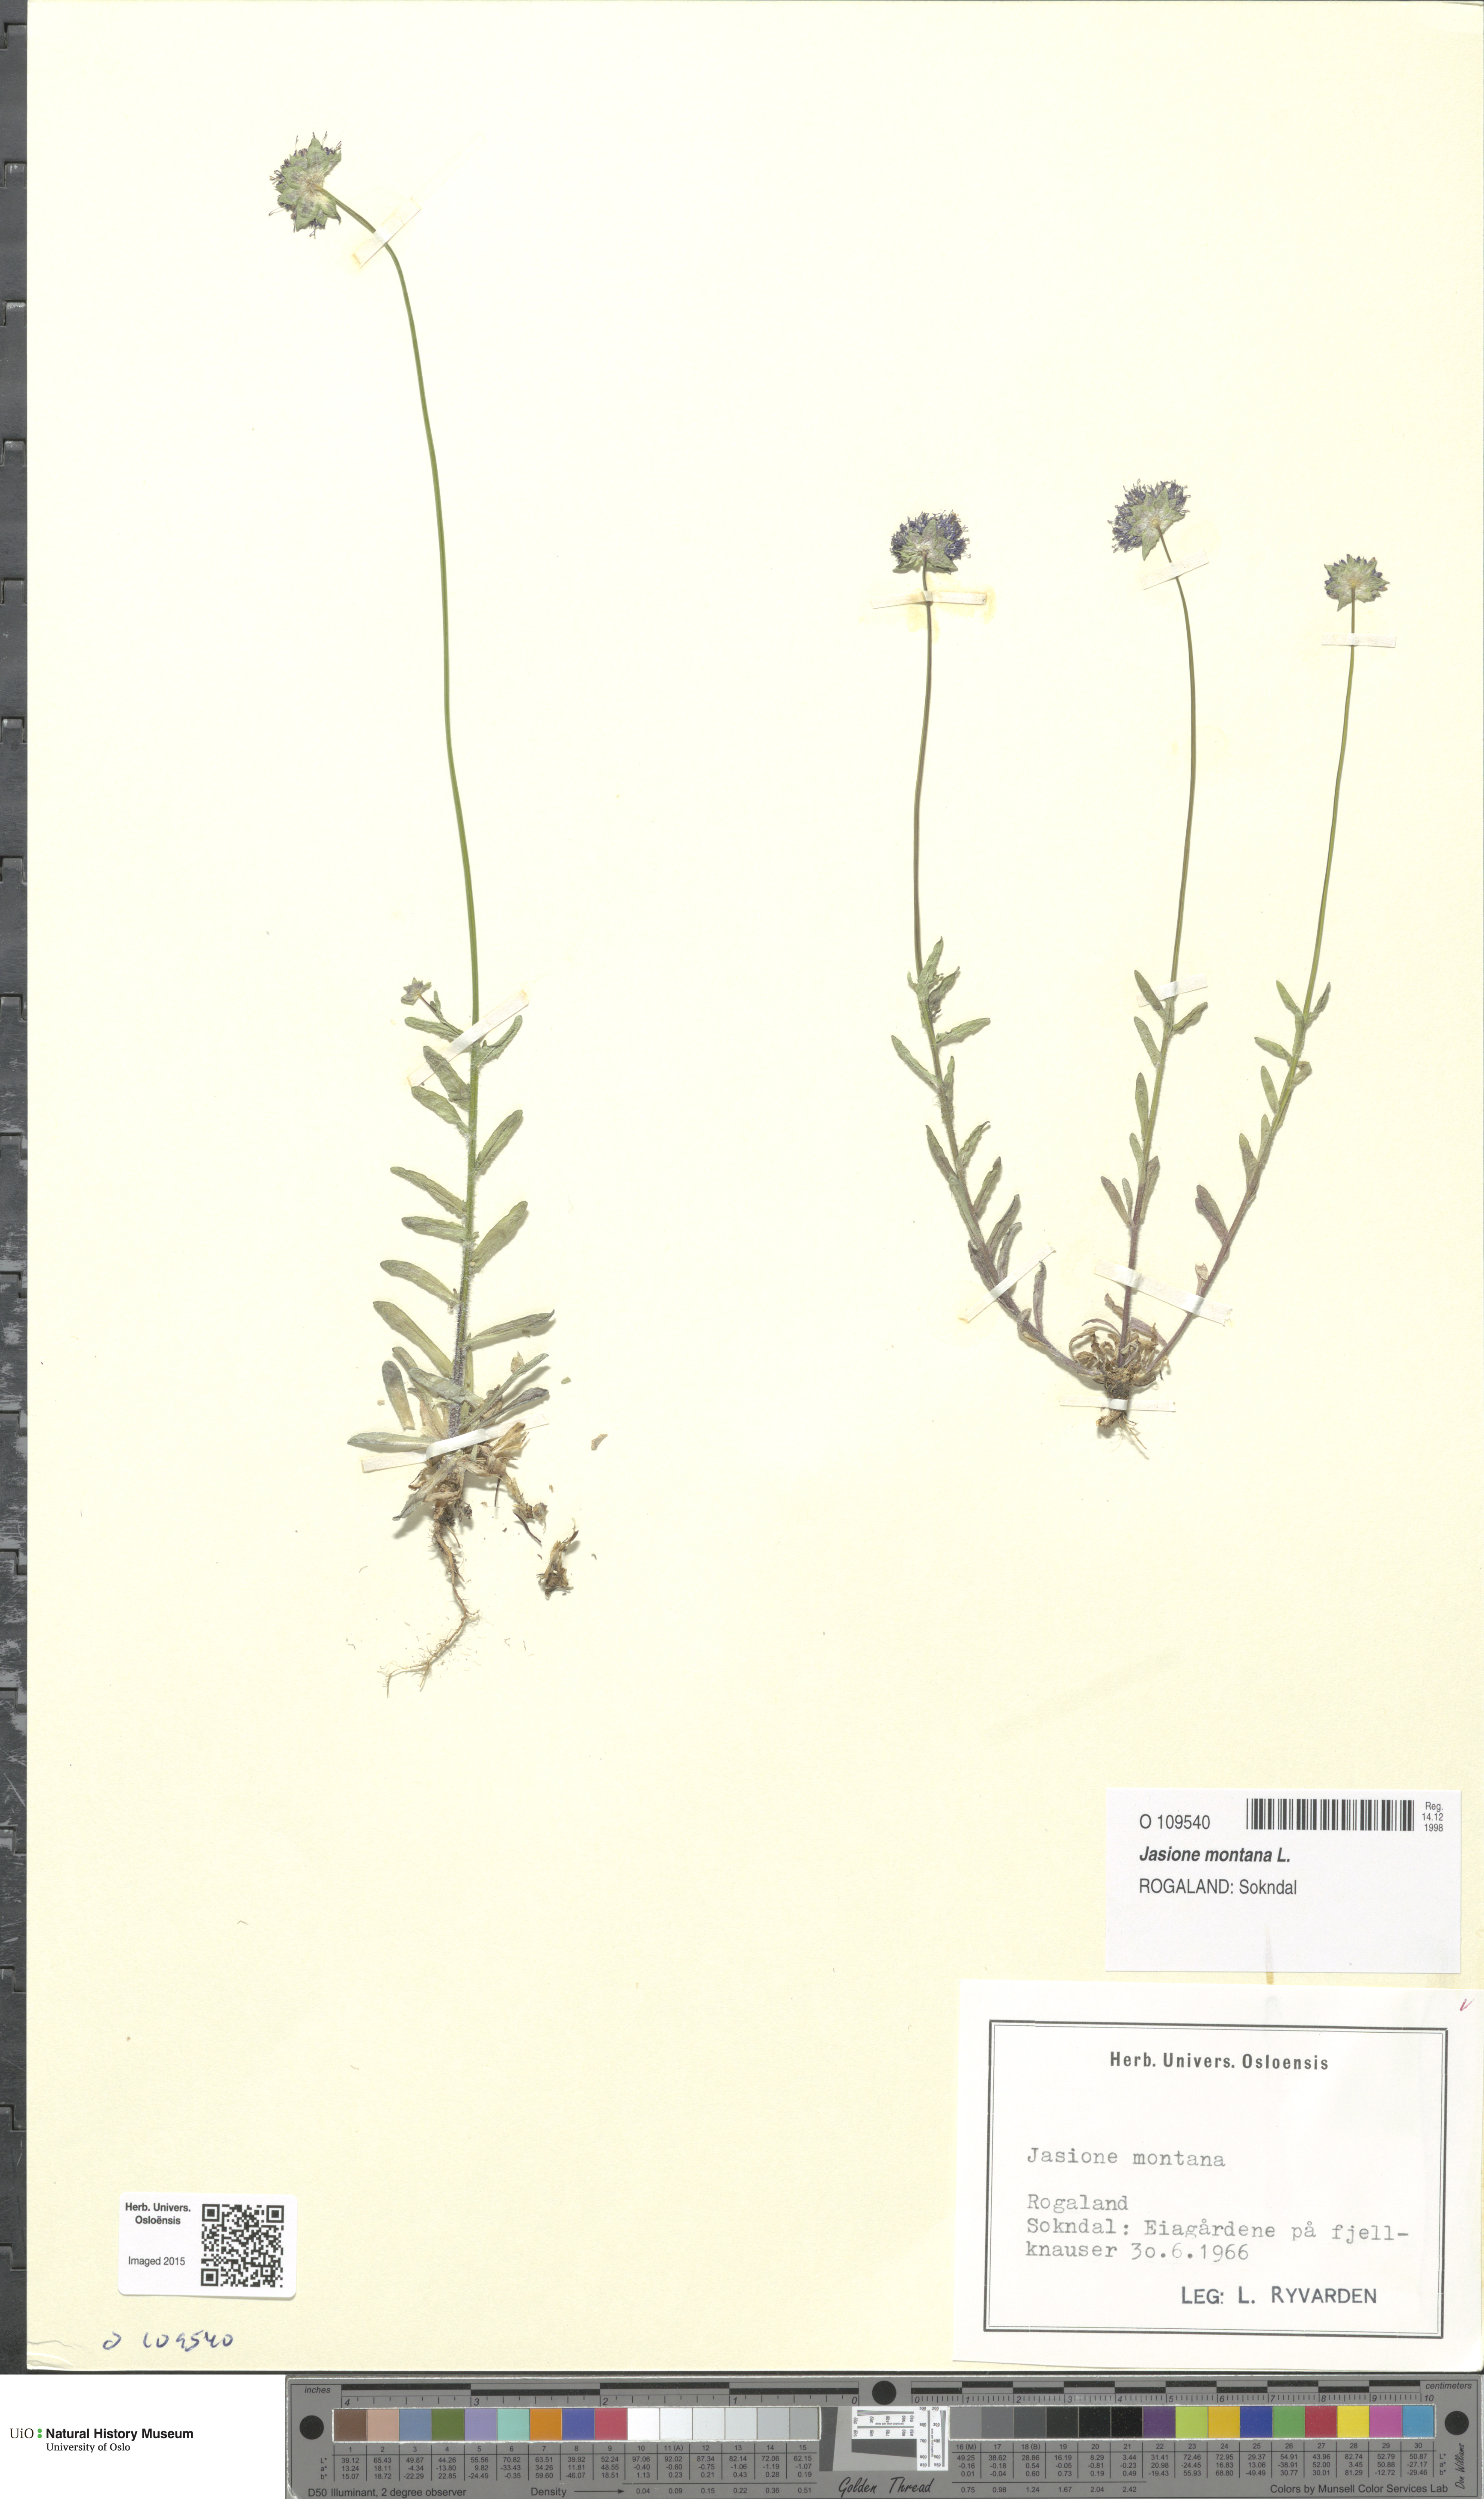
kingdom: Plantae
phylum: Tracheophyta
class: Magnoliopsida
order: Asterales
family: Campanulaceae
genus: Jasione
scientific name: Jasione montana
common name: Sheep's-bit
